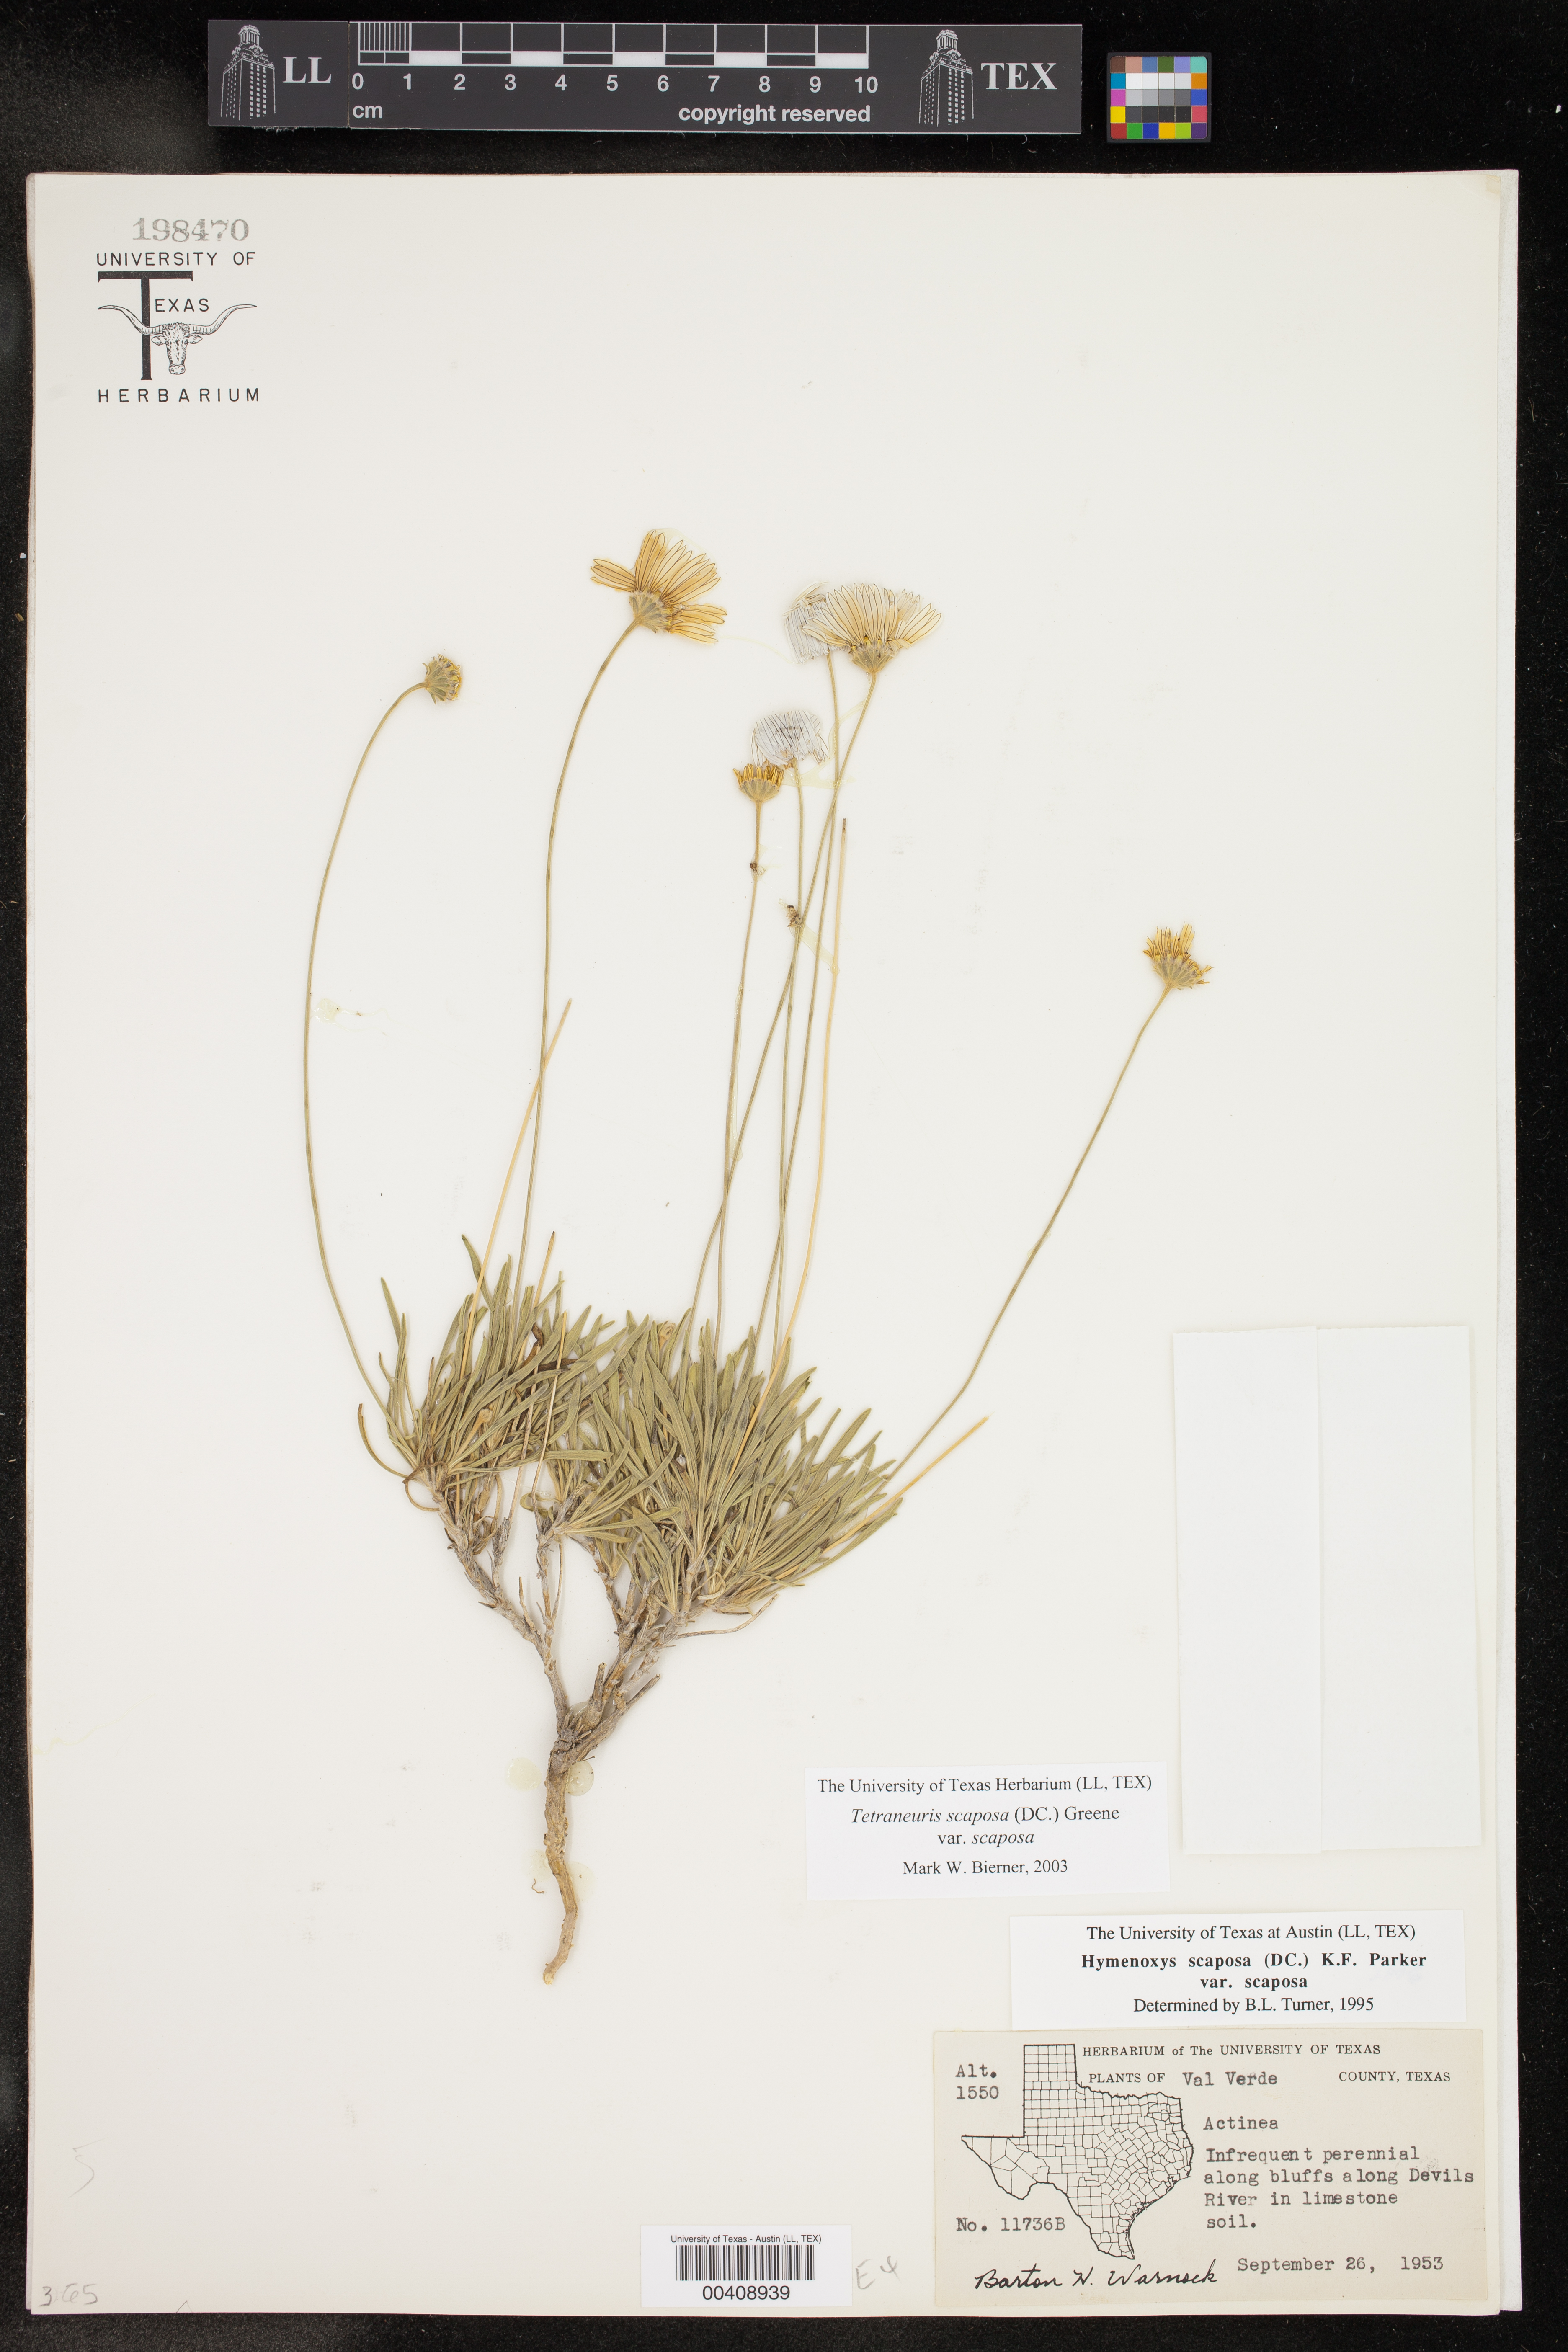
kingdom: Plantae
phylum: Tracheophyta
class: Magnoliopsida
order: Asterales
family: Asteraceae
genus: Tetraneuris
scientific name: Tetraneuris scaposa
